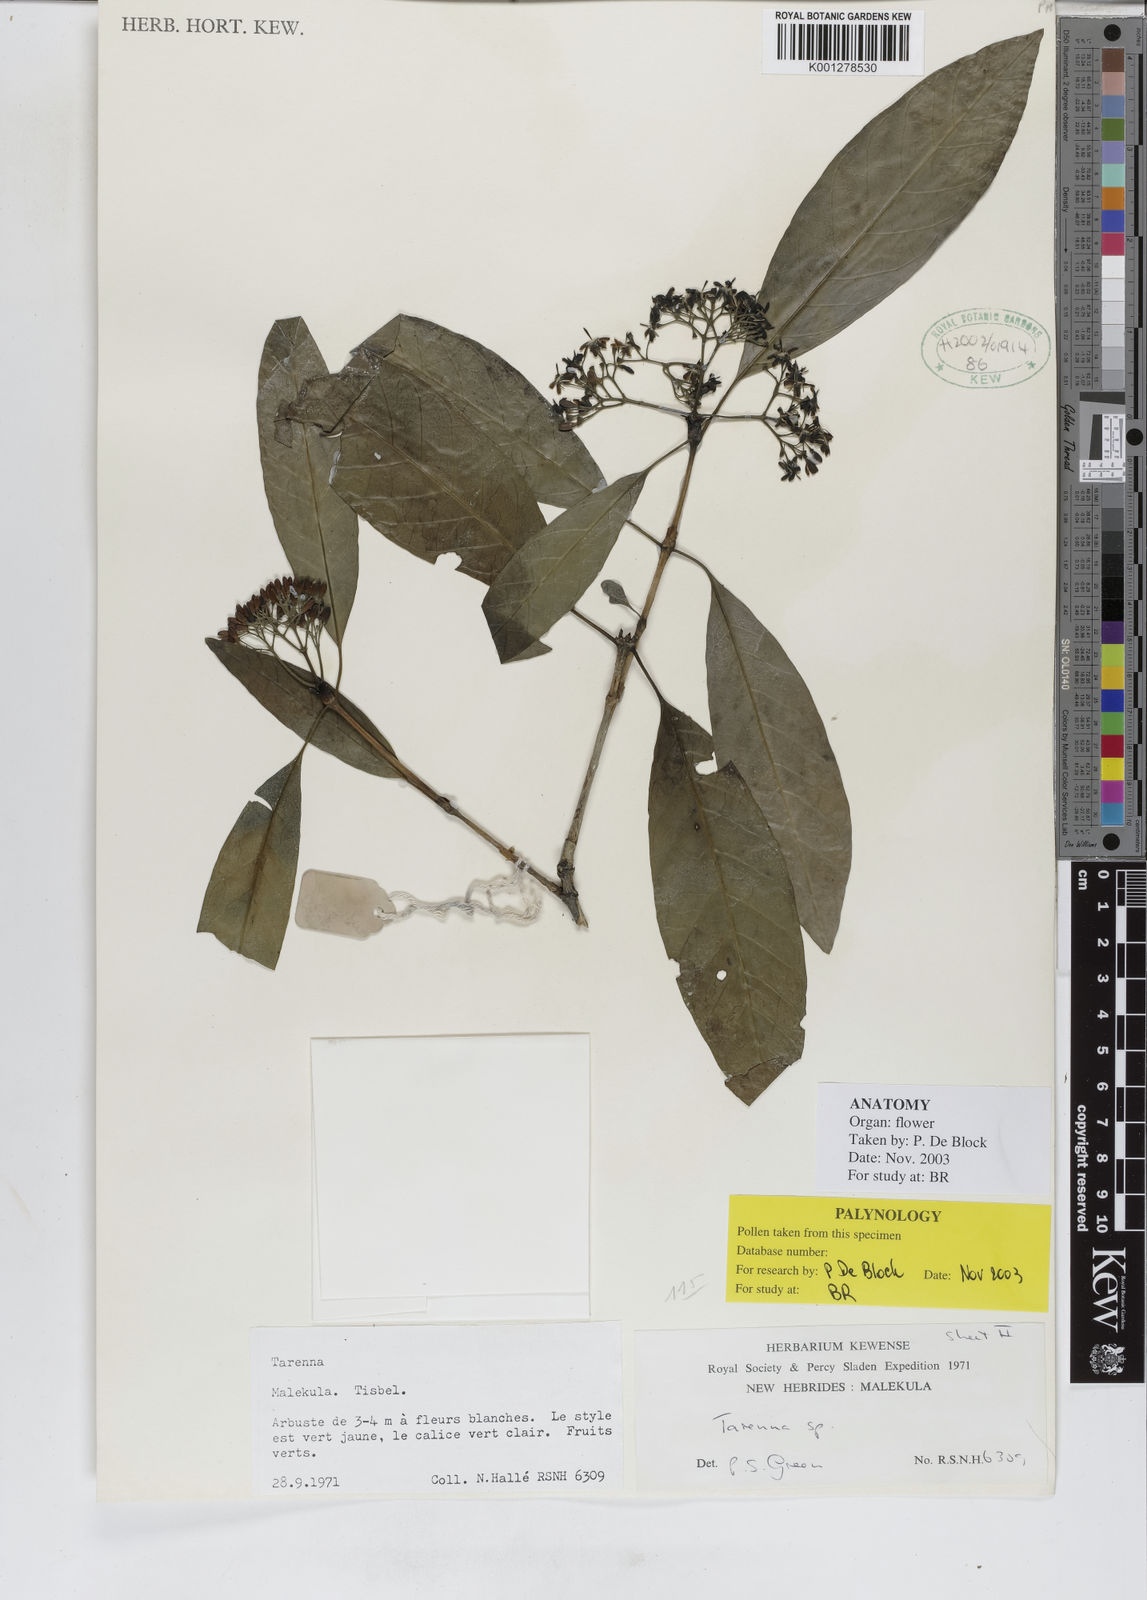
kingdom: Plantae
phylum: Tracheophyta
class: Magnoliopsida
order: Gentianales
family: Rubiaceae
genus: Tarenna
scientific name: Tarenna
